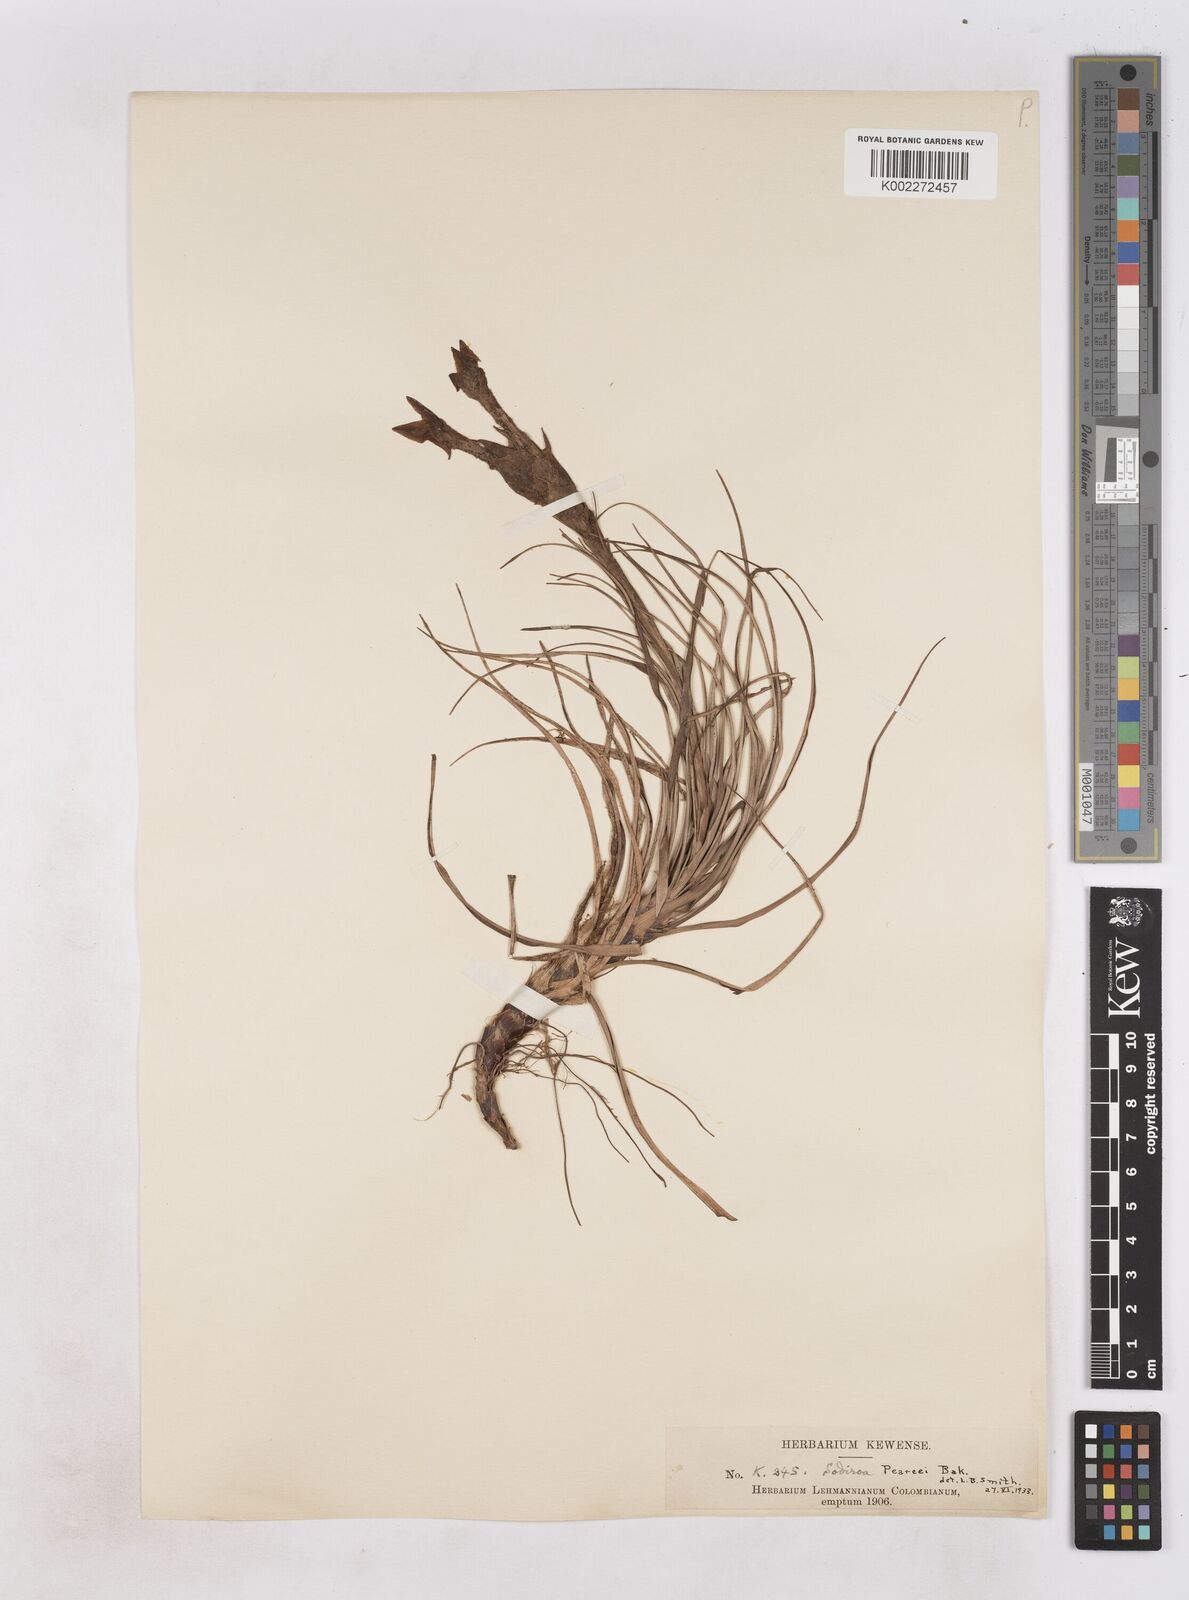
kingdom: Plantae
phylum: Tracheophyta
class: Liliopsida
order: Poales
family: Bromeliaceae
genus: Guzmania
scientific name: Guzmania pearcei
